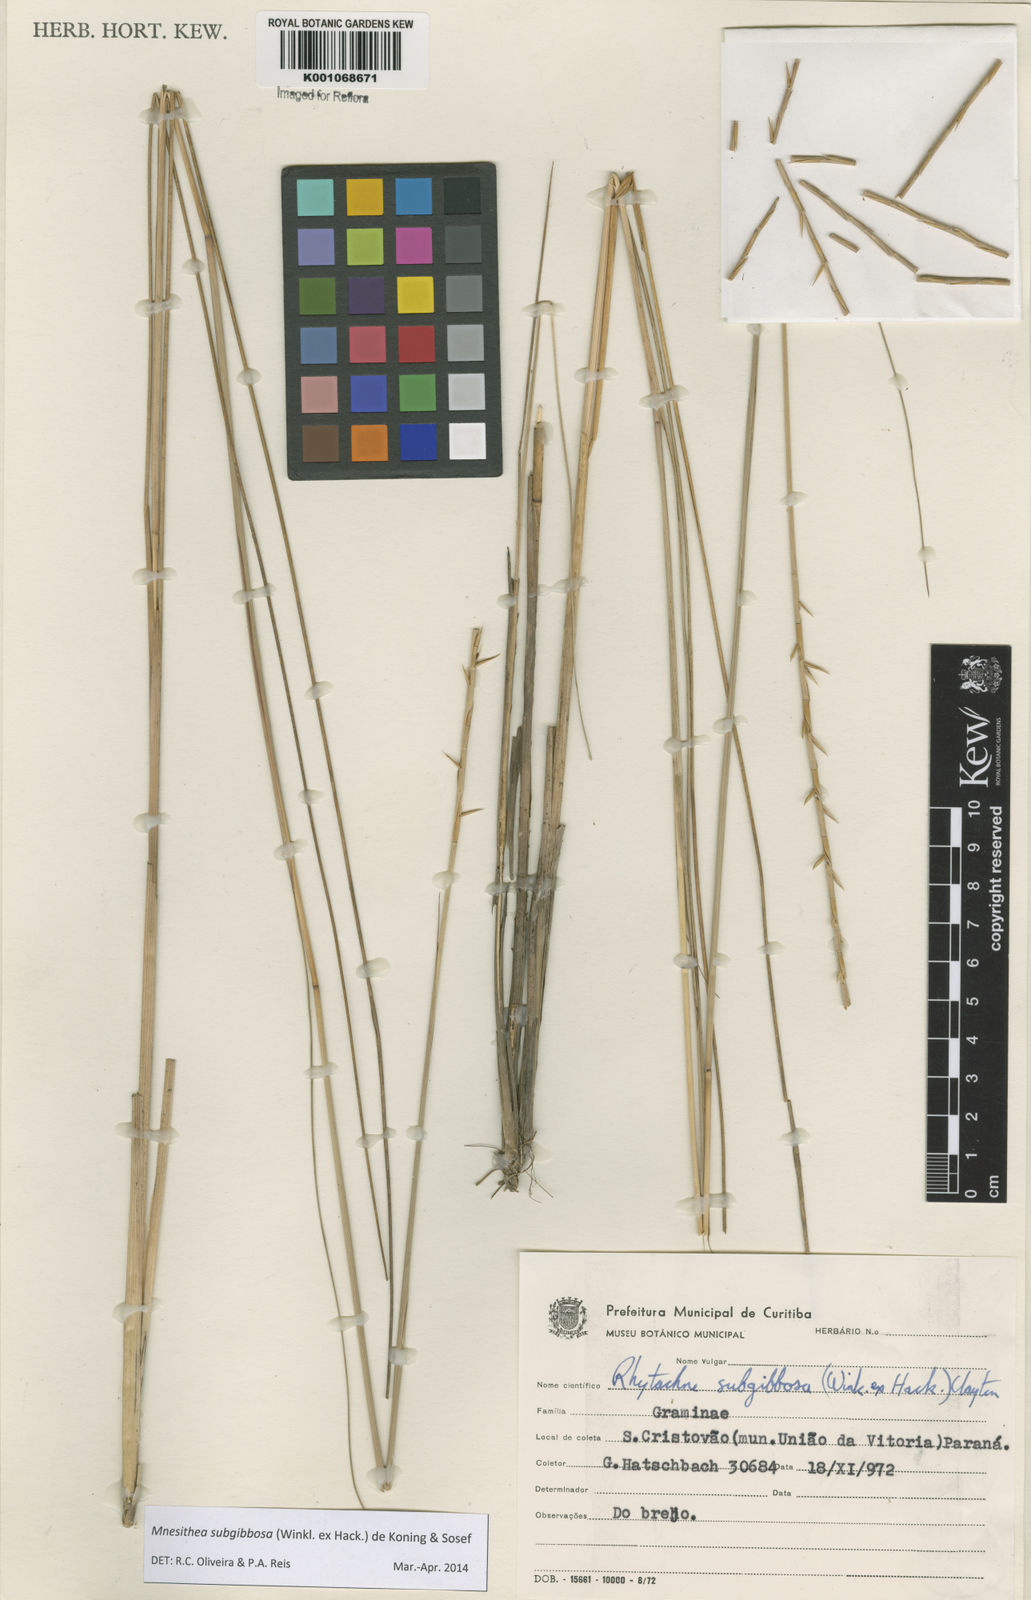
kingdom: Plantae
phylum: Tracheophyta
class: Liliopsida
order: Poales
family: Poaceae
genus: Rhytachne
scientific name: Rhytachne subgibbosa
